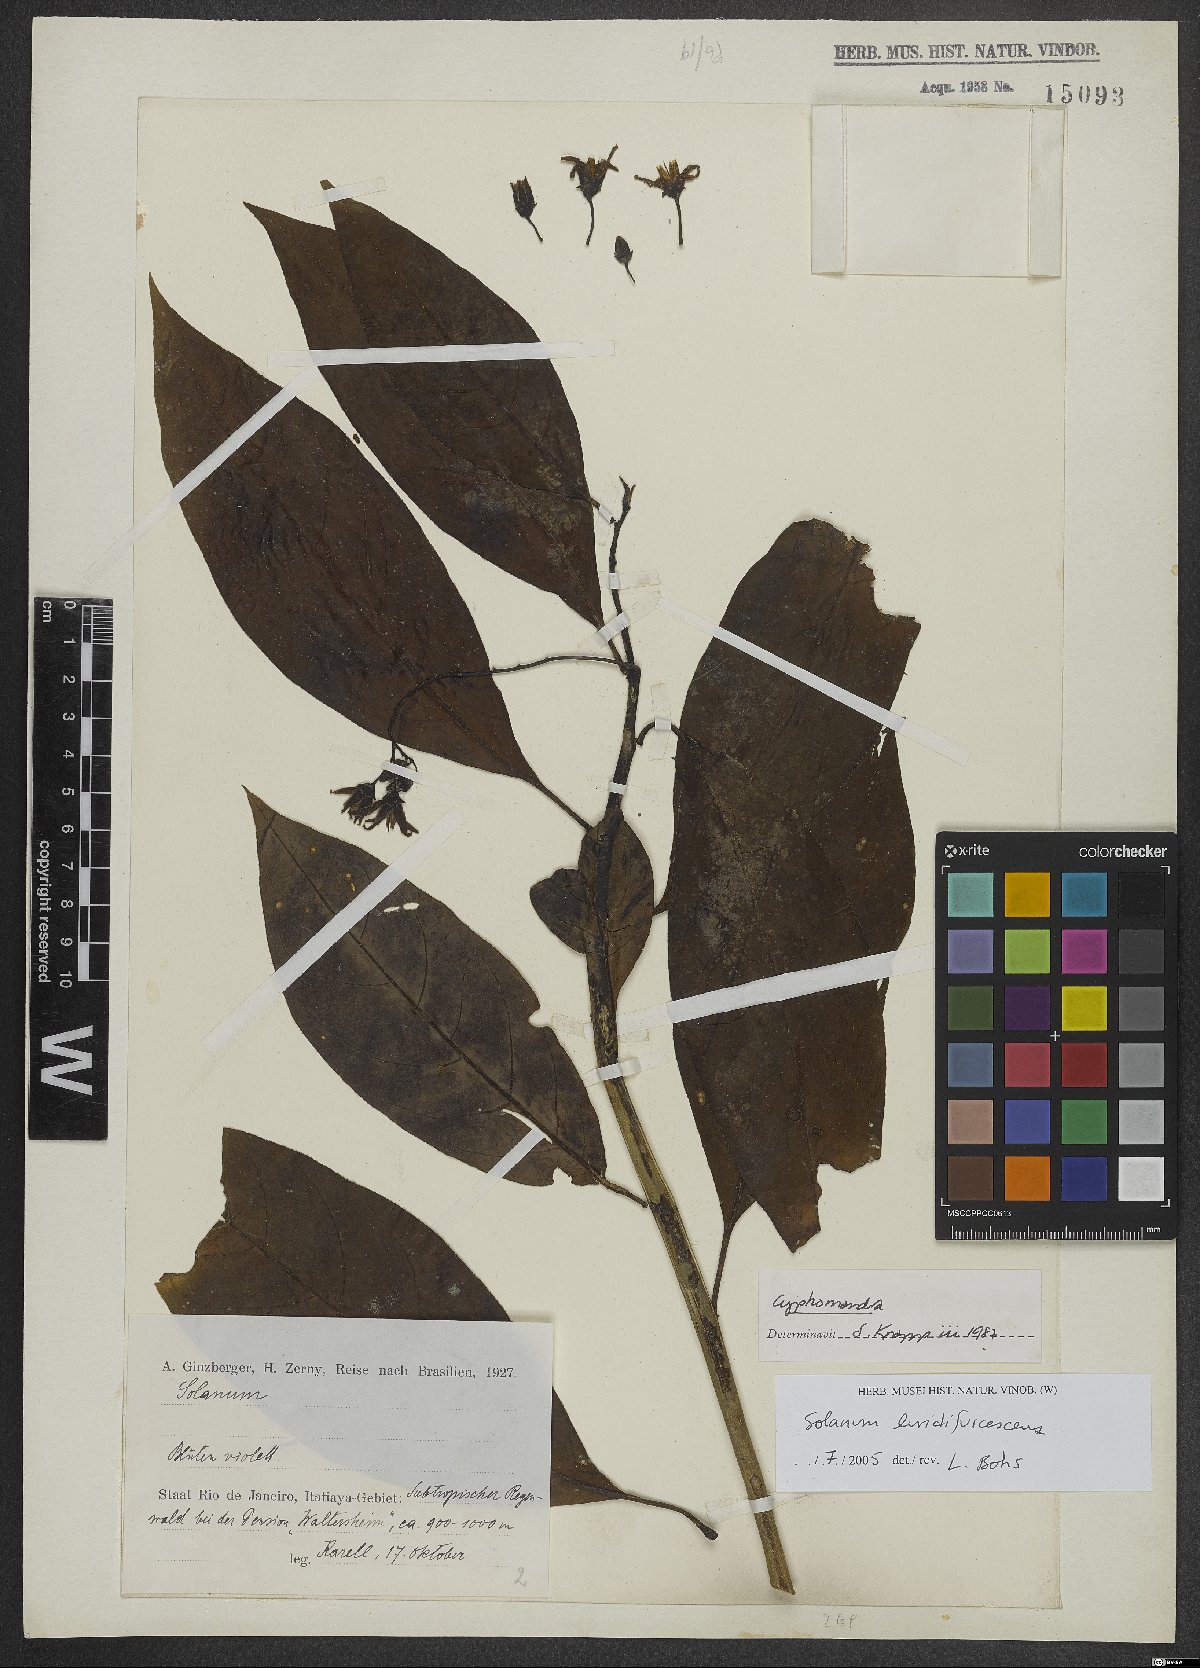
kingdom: Plantae
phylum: Tracheophyta
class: Magnoliopsida
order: Solanales
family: Solanaceae
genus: Solanum
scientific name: Solanum luridifuscescens
